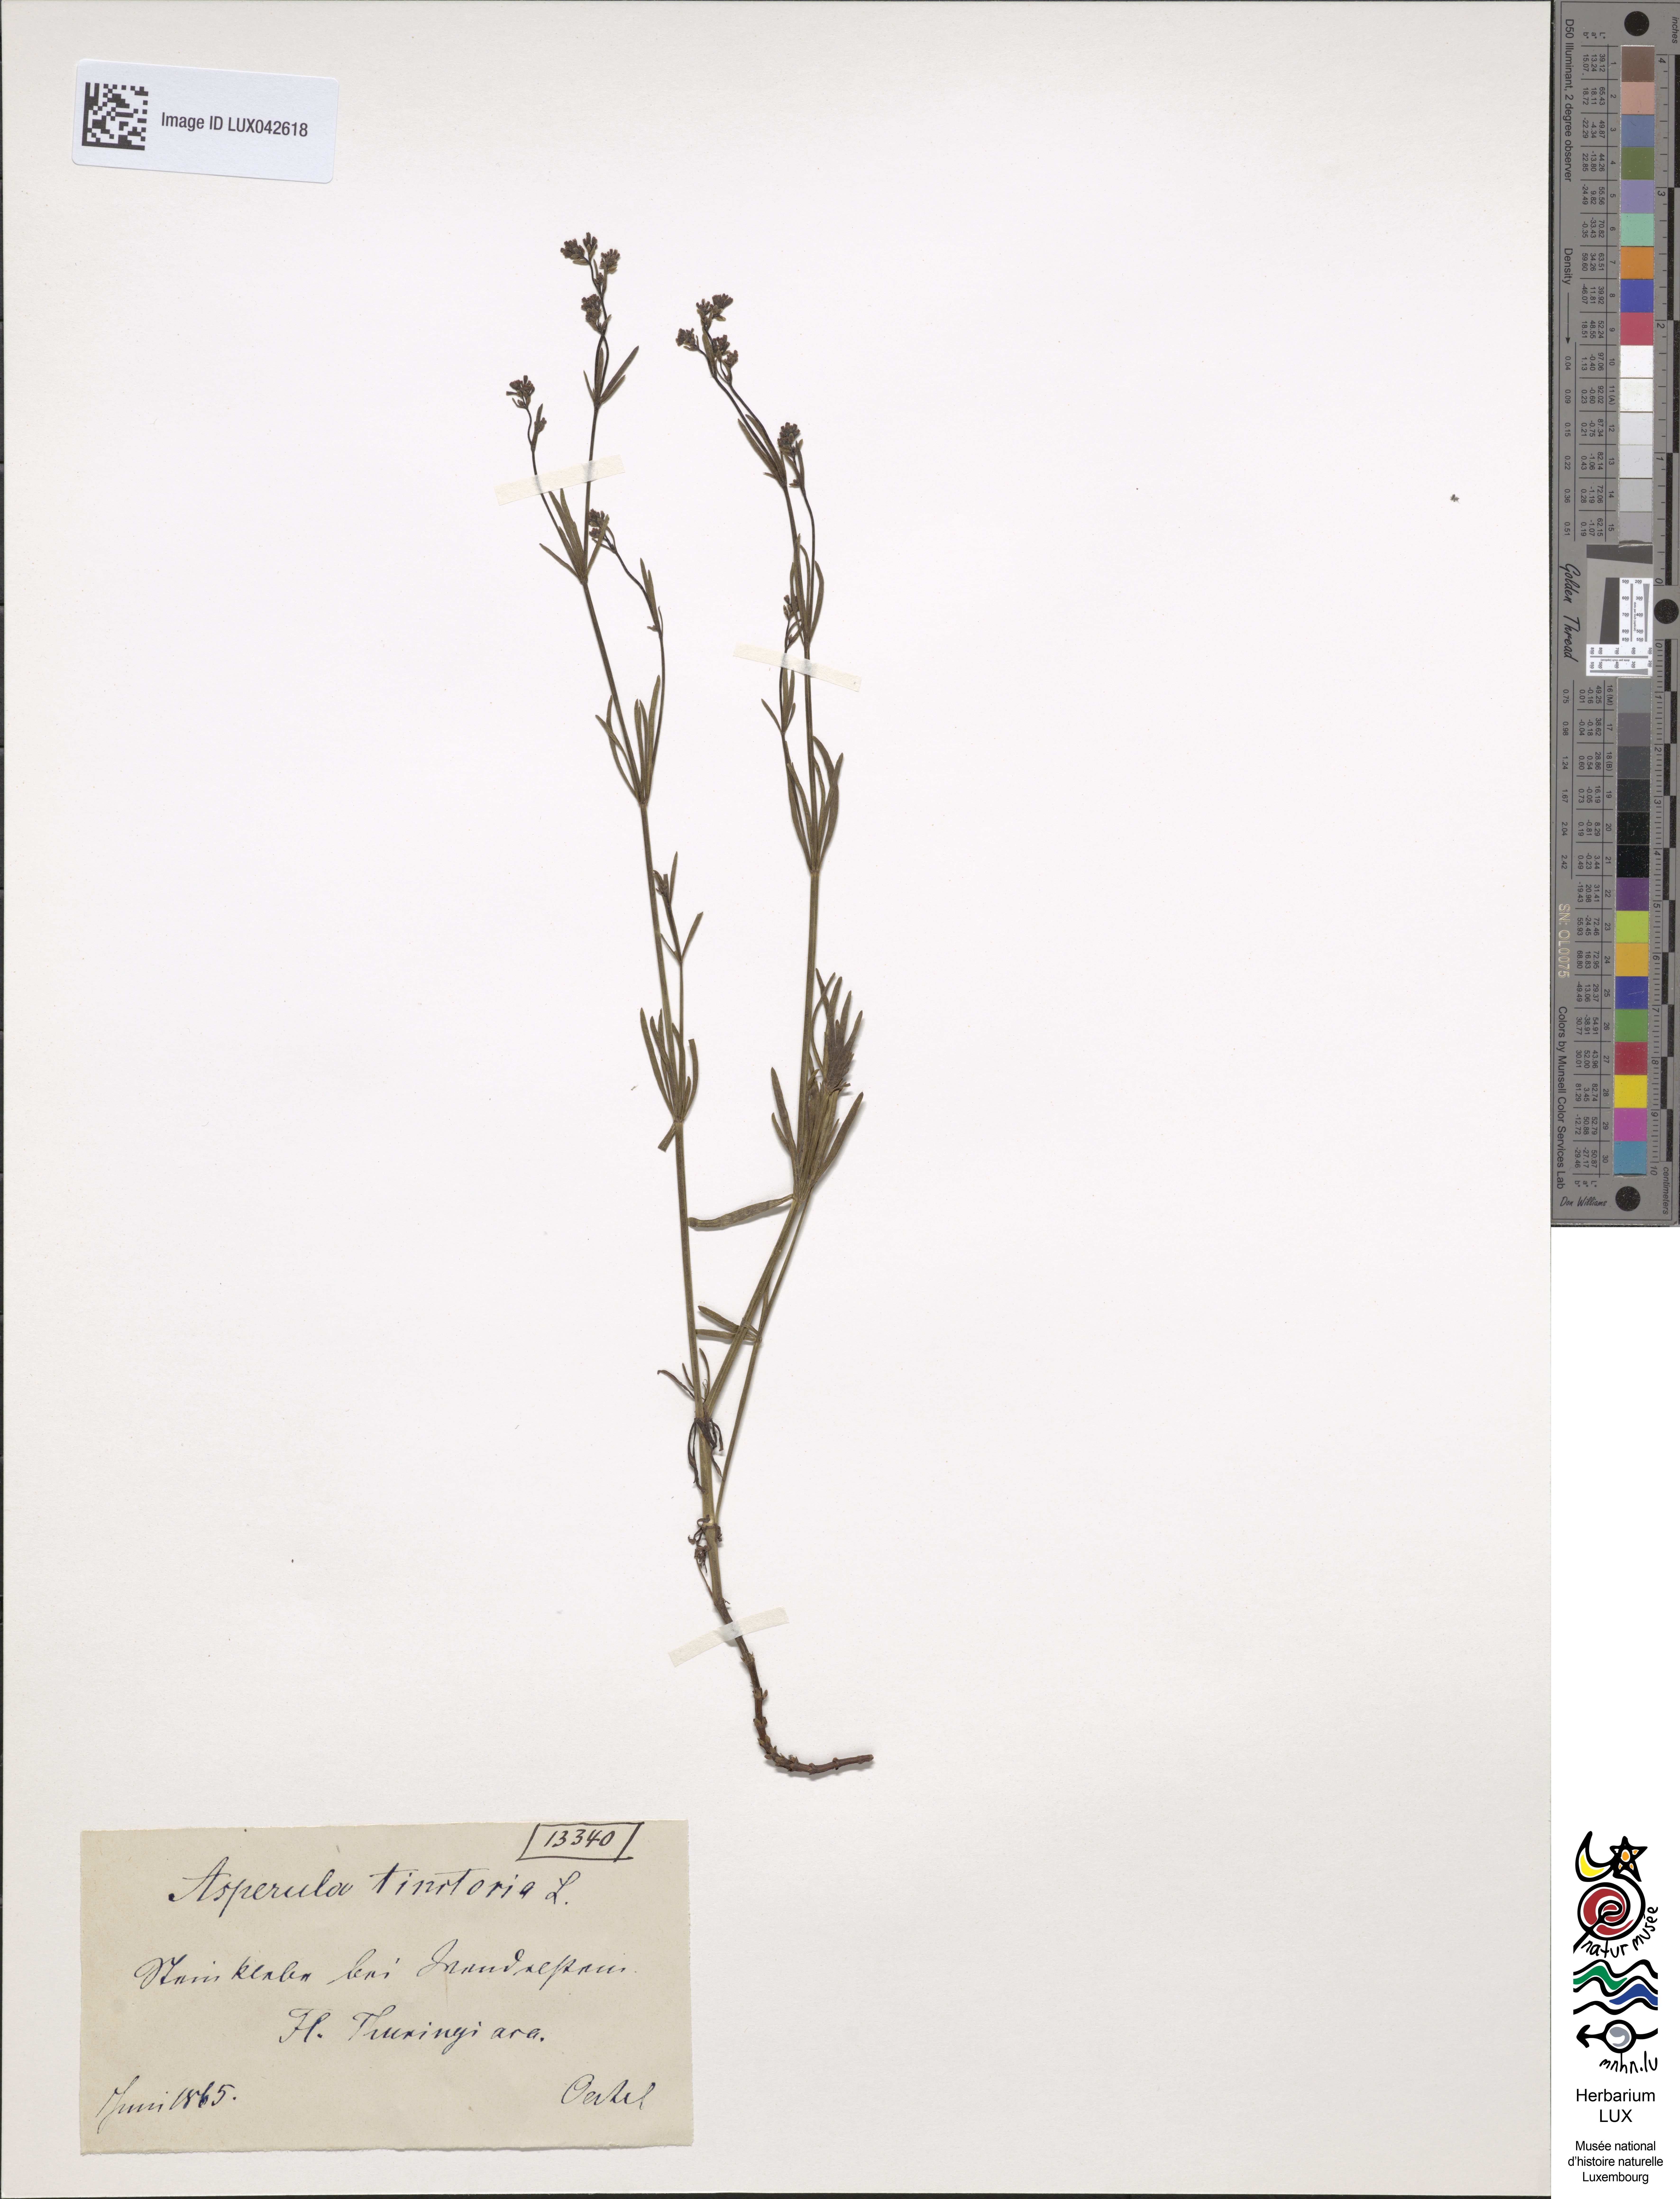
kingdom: Plantae
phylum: Tracheophyta
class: Magnoliopsida
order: Gentianales
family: Rubiaceae
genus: Asperula
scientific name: Asperula tinctoria
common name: Dyer's woodruff
